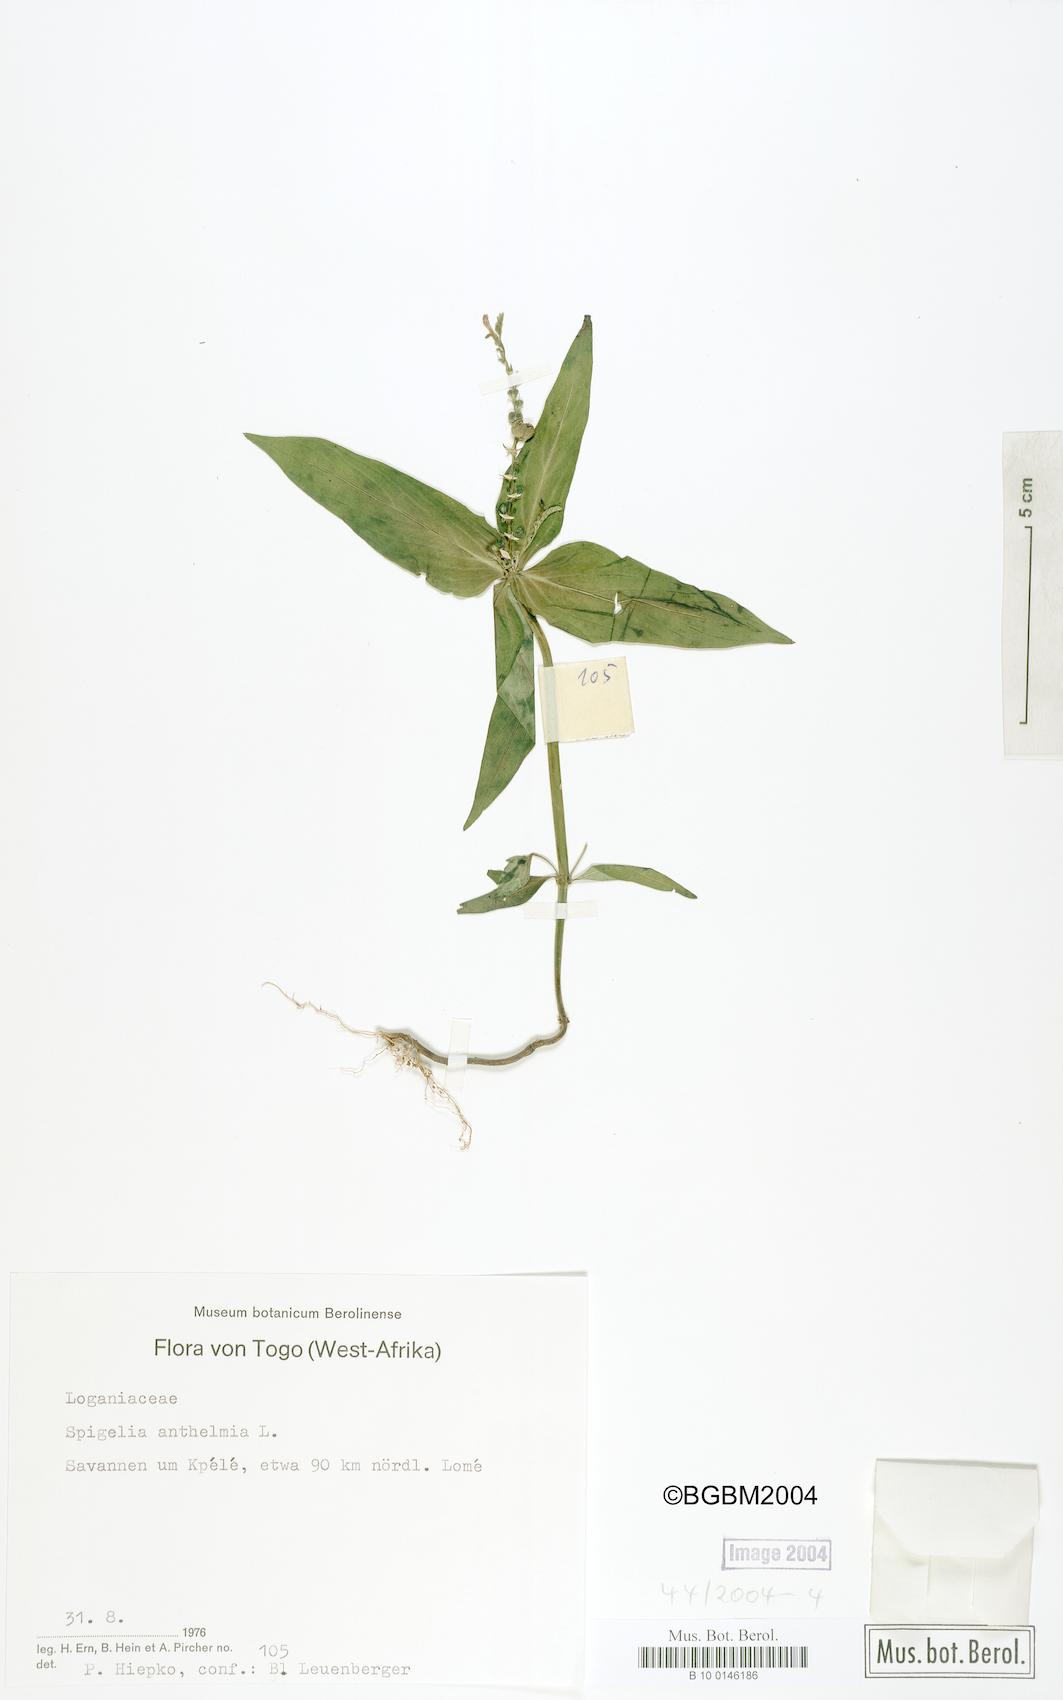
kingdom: Plantae
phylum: Tracheophyta
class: Magnoliopsida
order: Gentianales
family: Loganiaceae
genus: Spigelia
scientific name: Spigelia anthelmia
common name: West indian-pink
